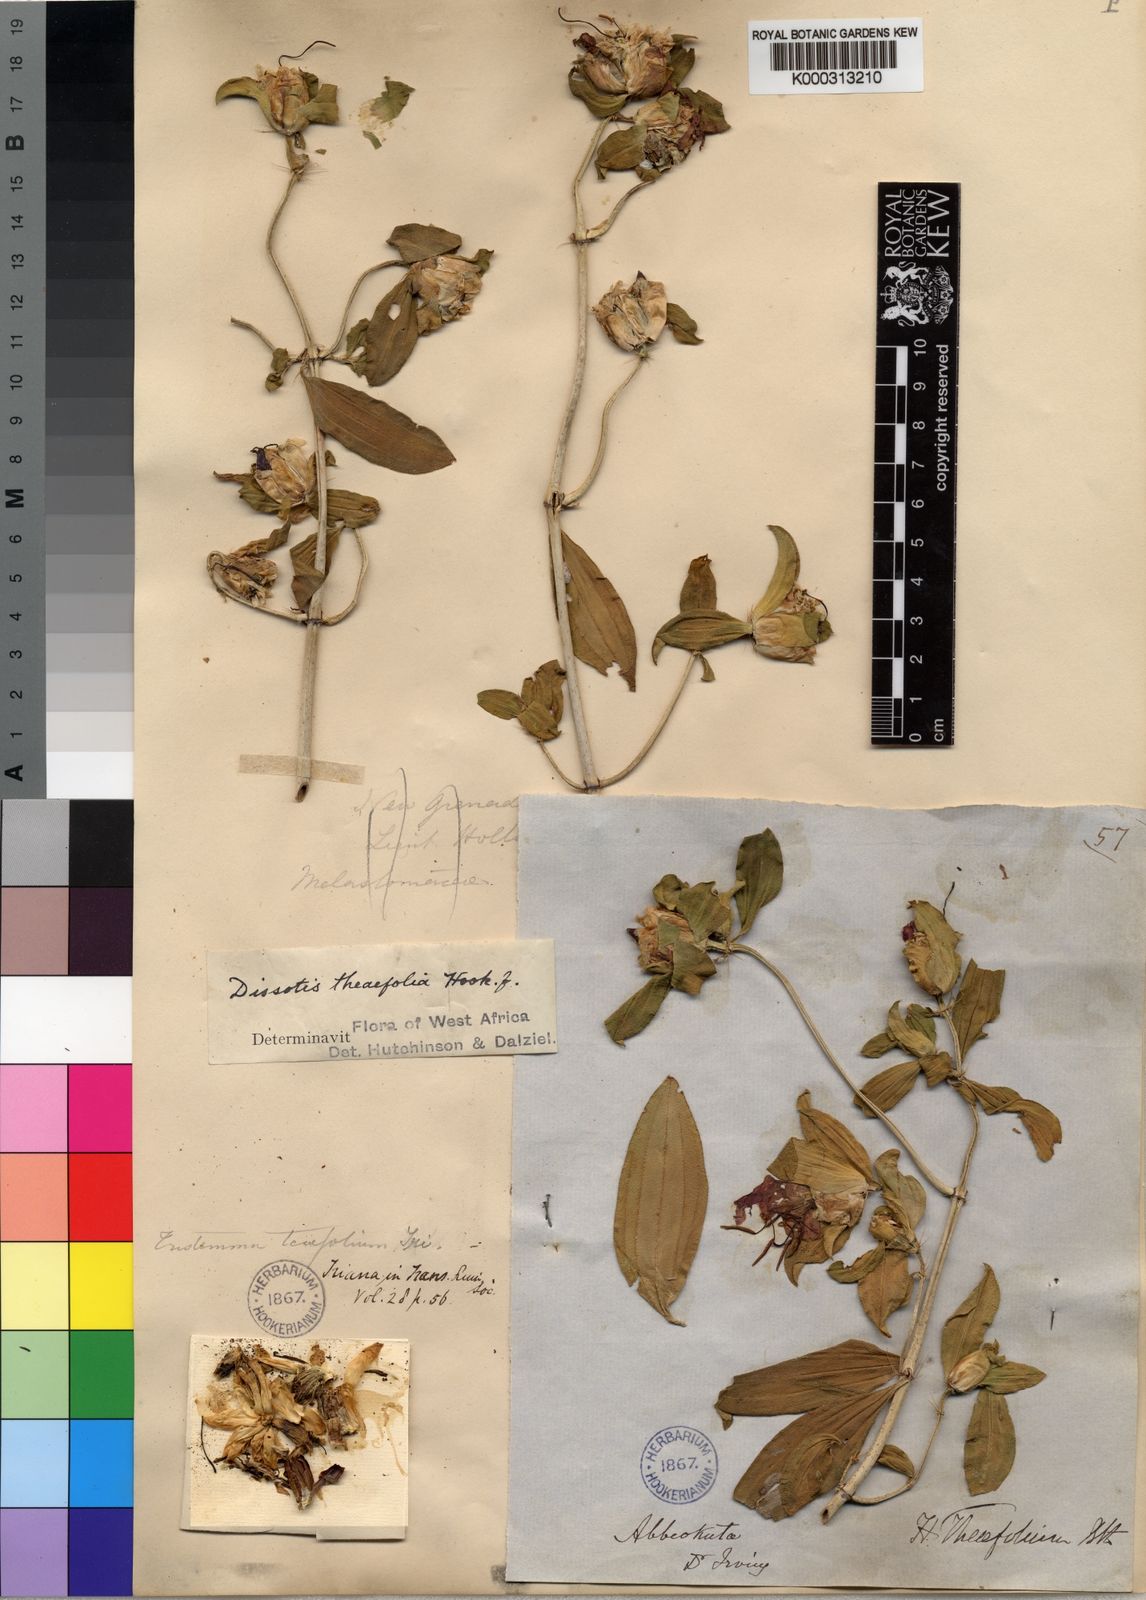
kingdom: Plantae
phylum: Tracheophyta
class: Magnoliopsida
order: Myrtales
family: Melastomataceae
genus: Melastomastrum
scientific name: Melastomastrum theifolium
